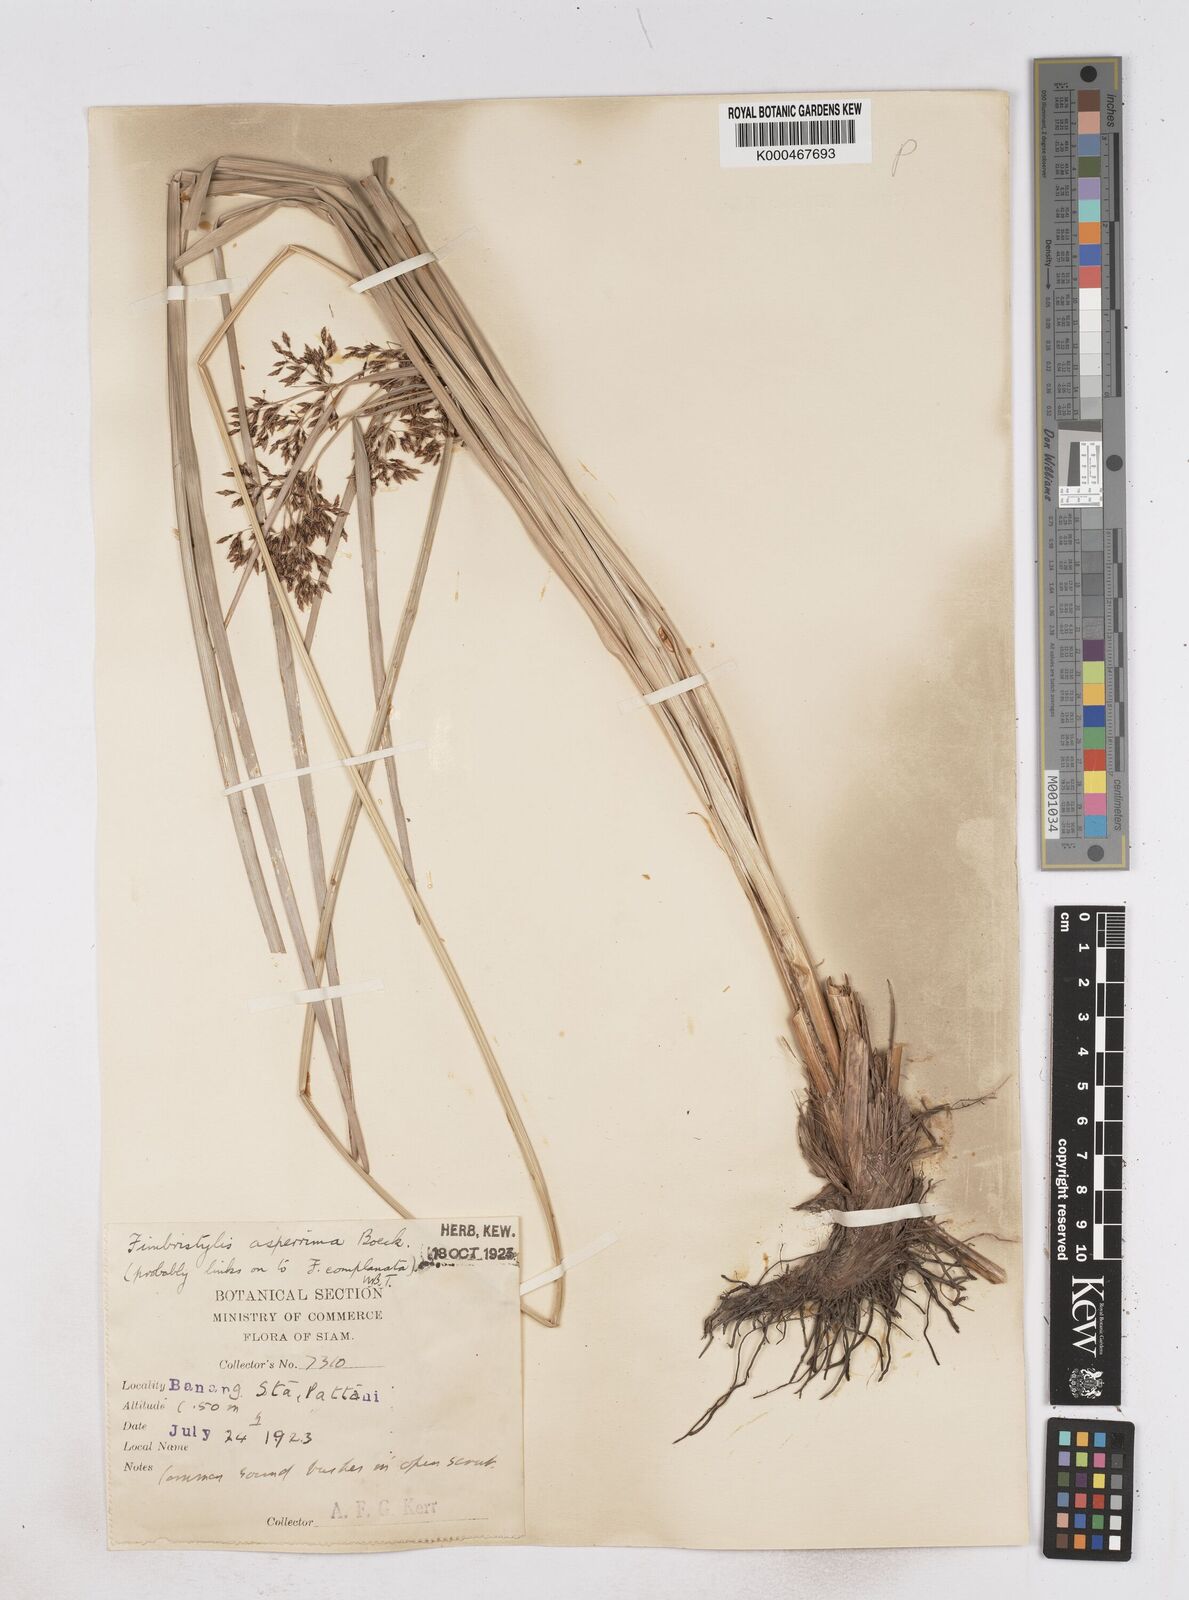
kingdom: Plantae
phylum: Tracheophyta
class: Liliopsida
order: Poales
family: Cyperaceae
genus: Fimbristylis
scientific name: Fimbristylis dura
